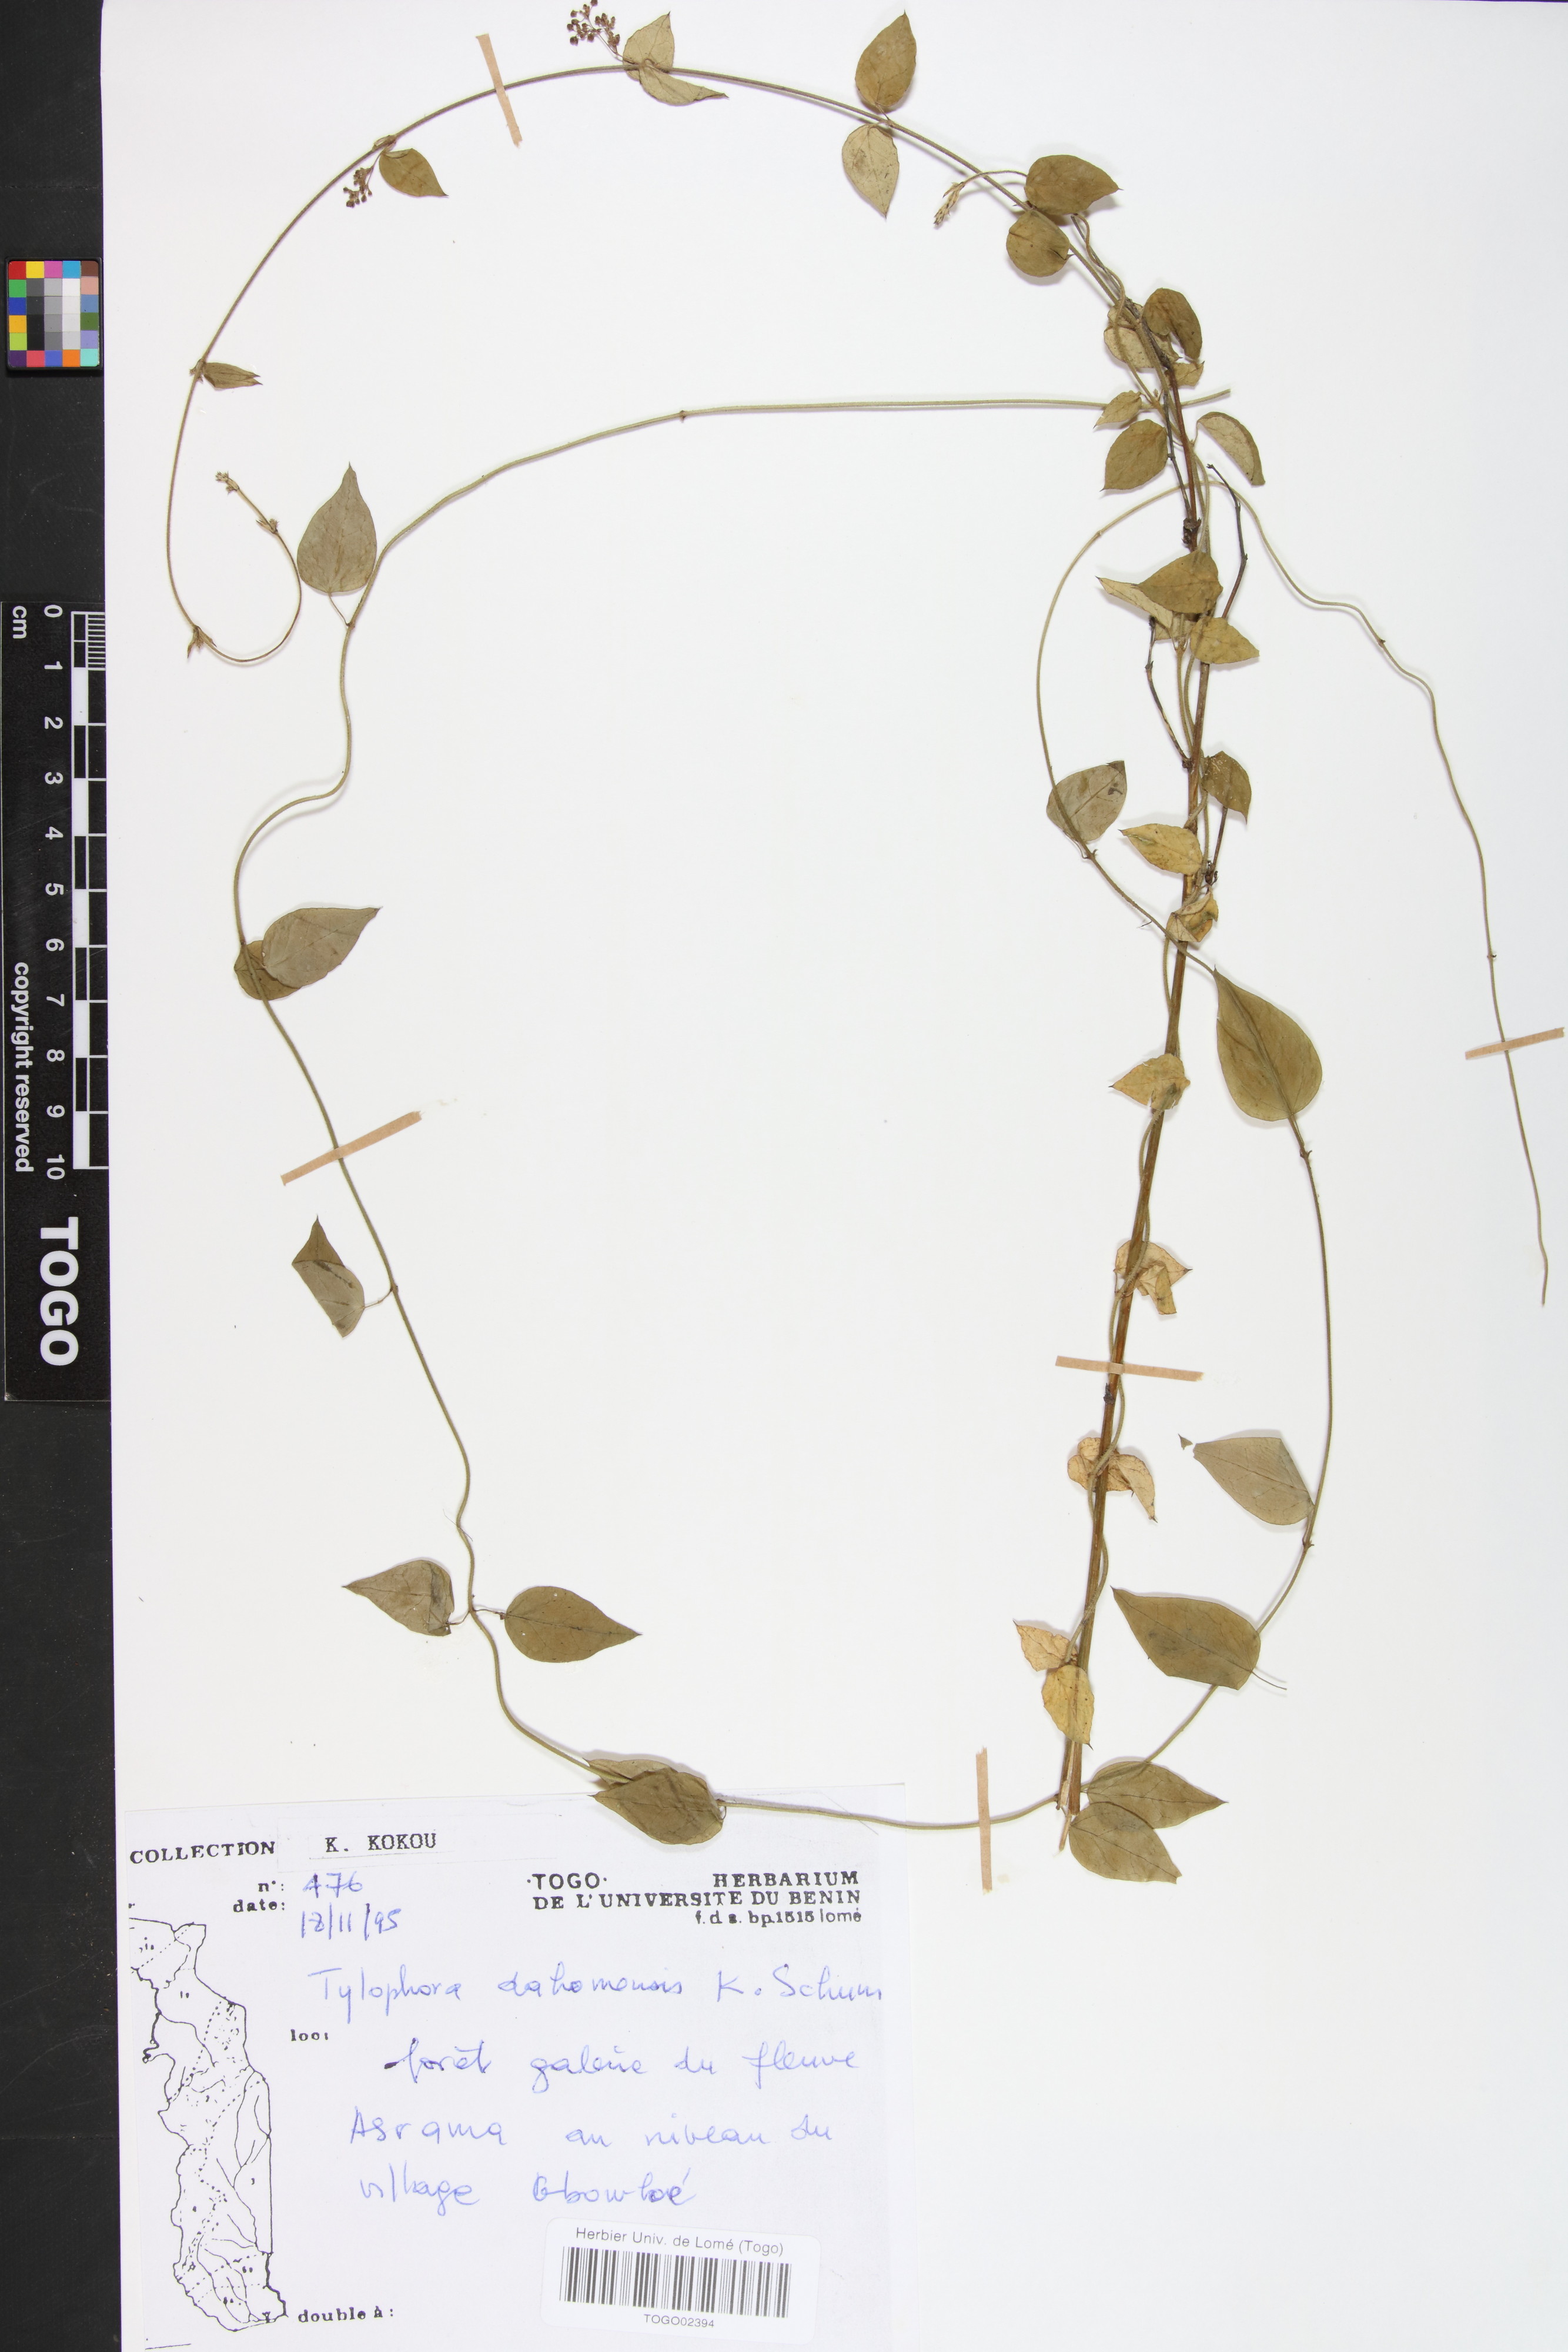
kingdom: Plantae
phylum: Tracheophyta
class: Magnoliopsida
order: Gentianales
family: Apocynaceae
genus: Vincetoxicum
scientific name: Vincetoxicum dahomense
